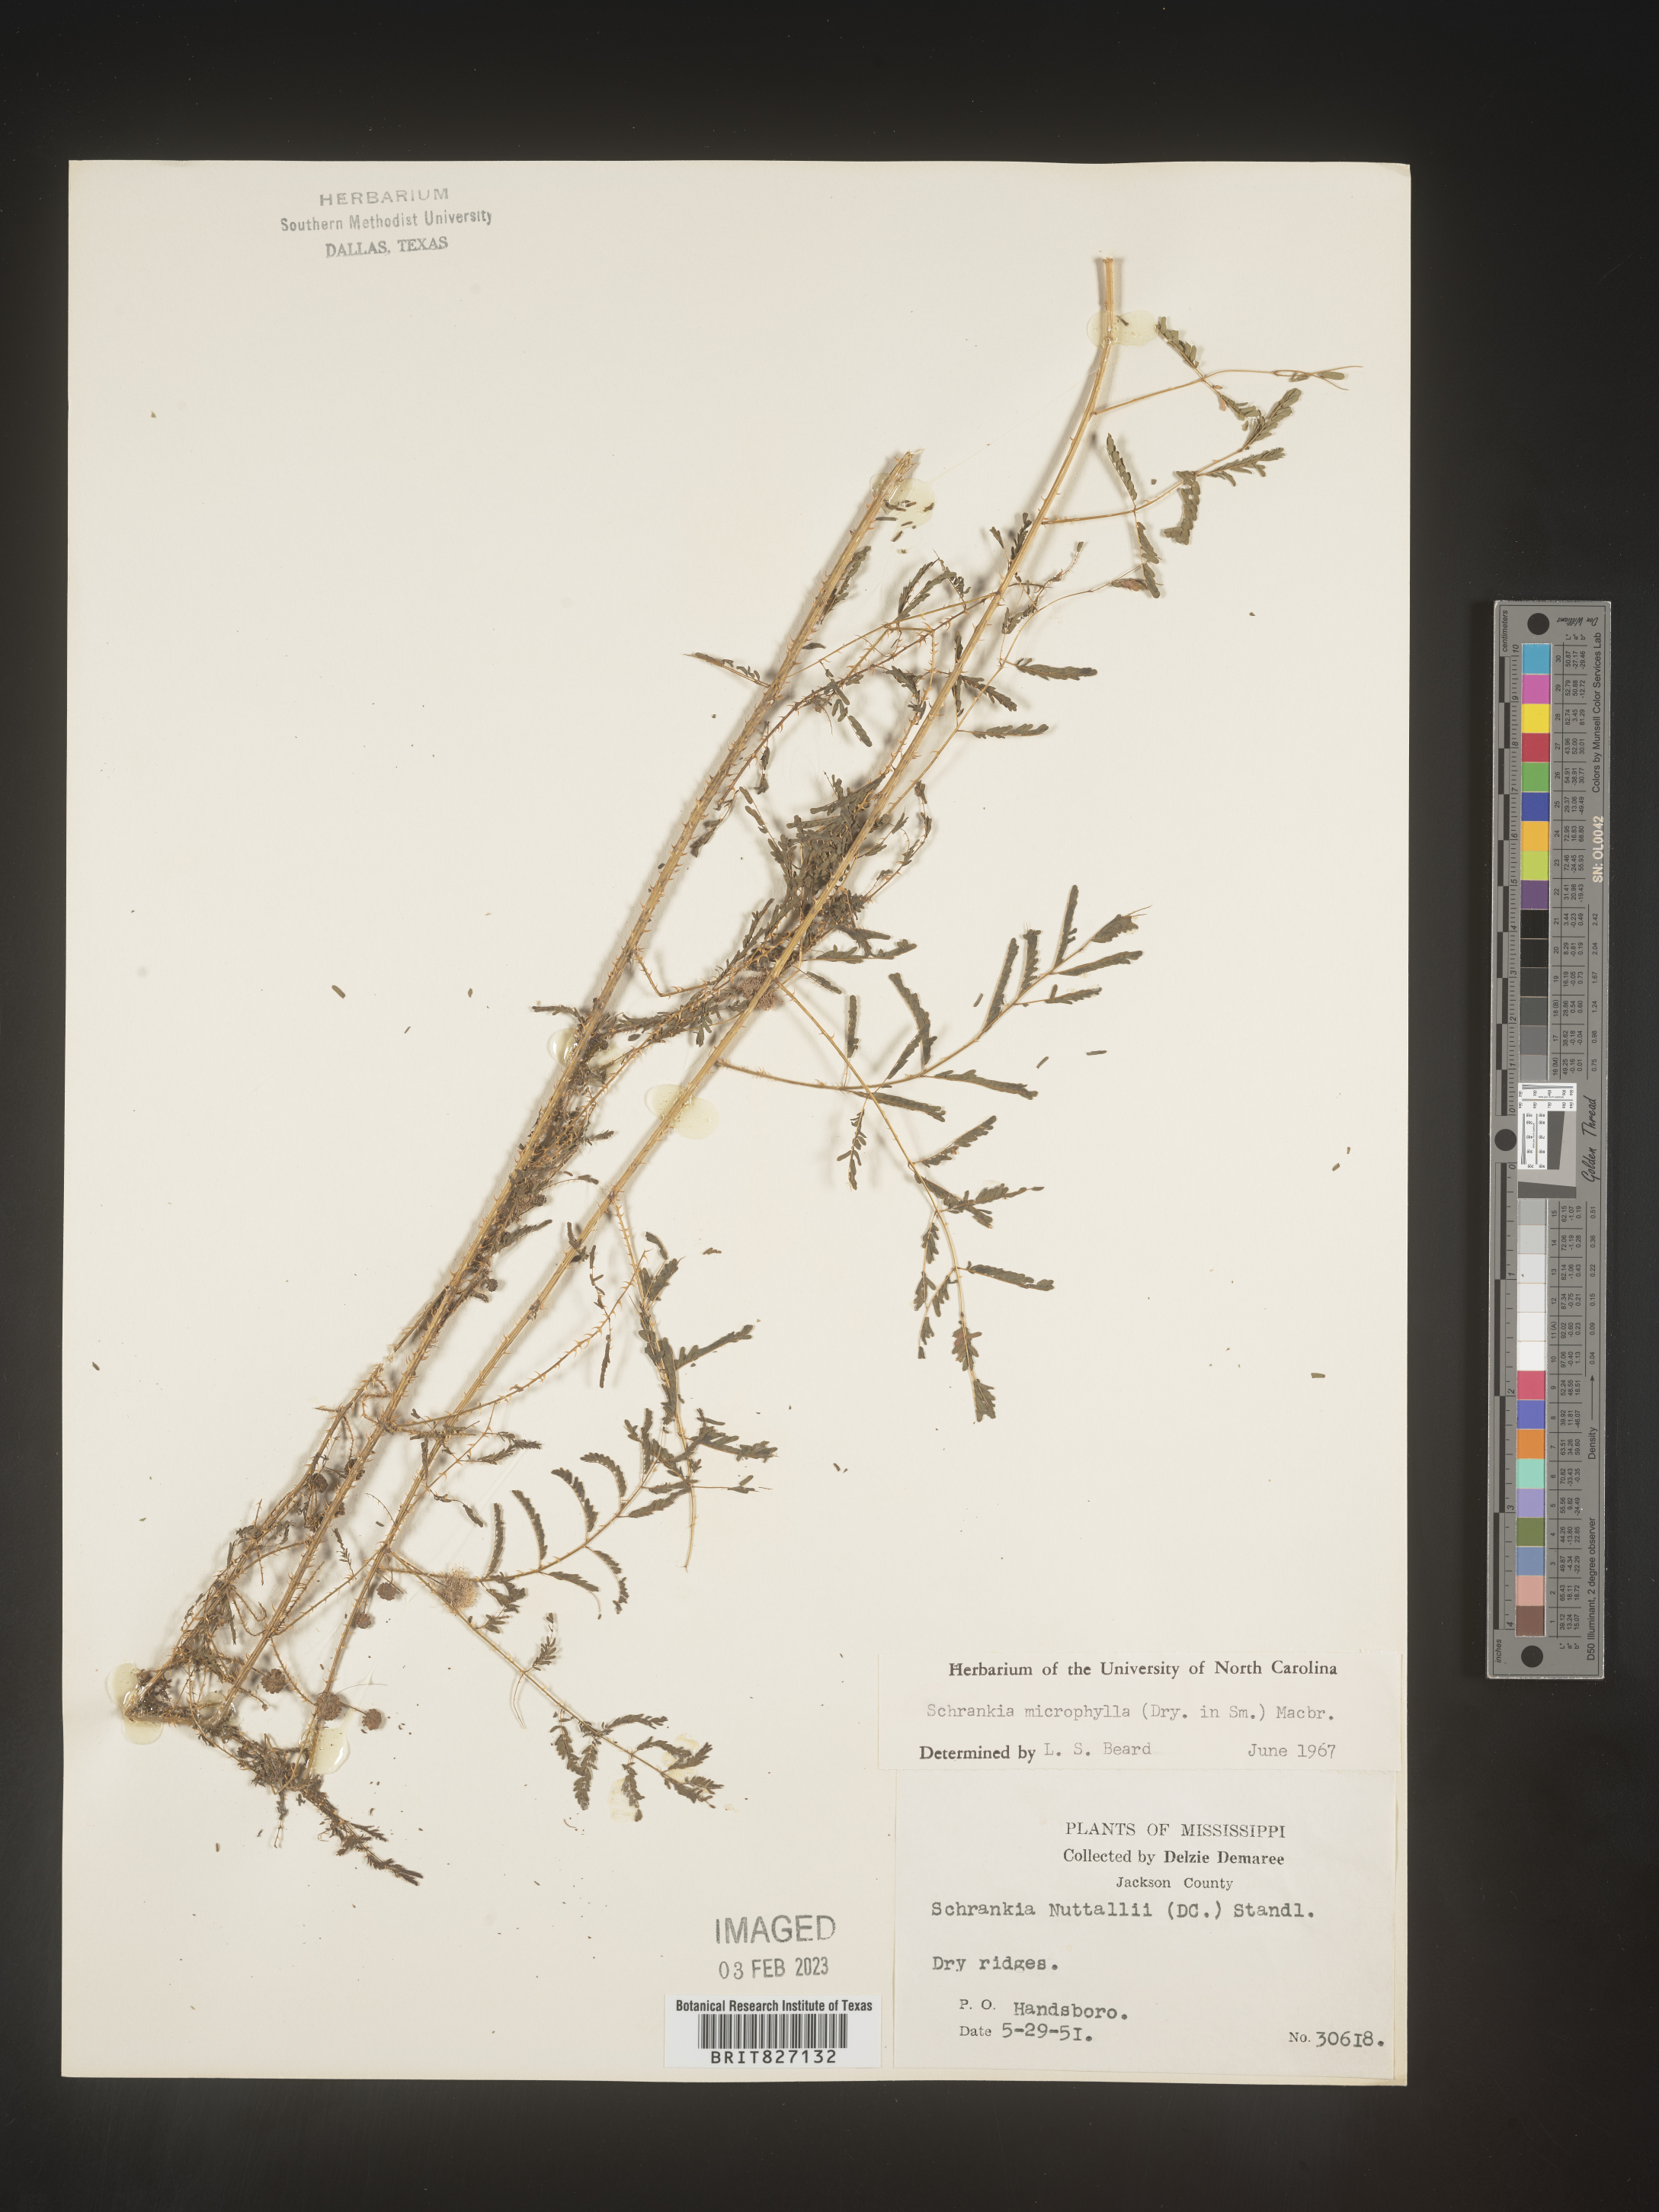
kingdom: Plantae
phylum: Tracheophyta
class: Magnoliopsida
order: Fabales
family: Fabaceae
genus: Mimosa
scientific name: Mimosa quadrivalvis
